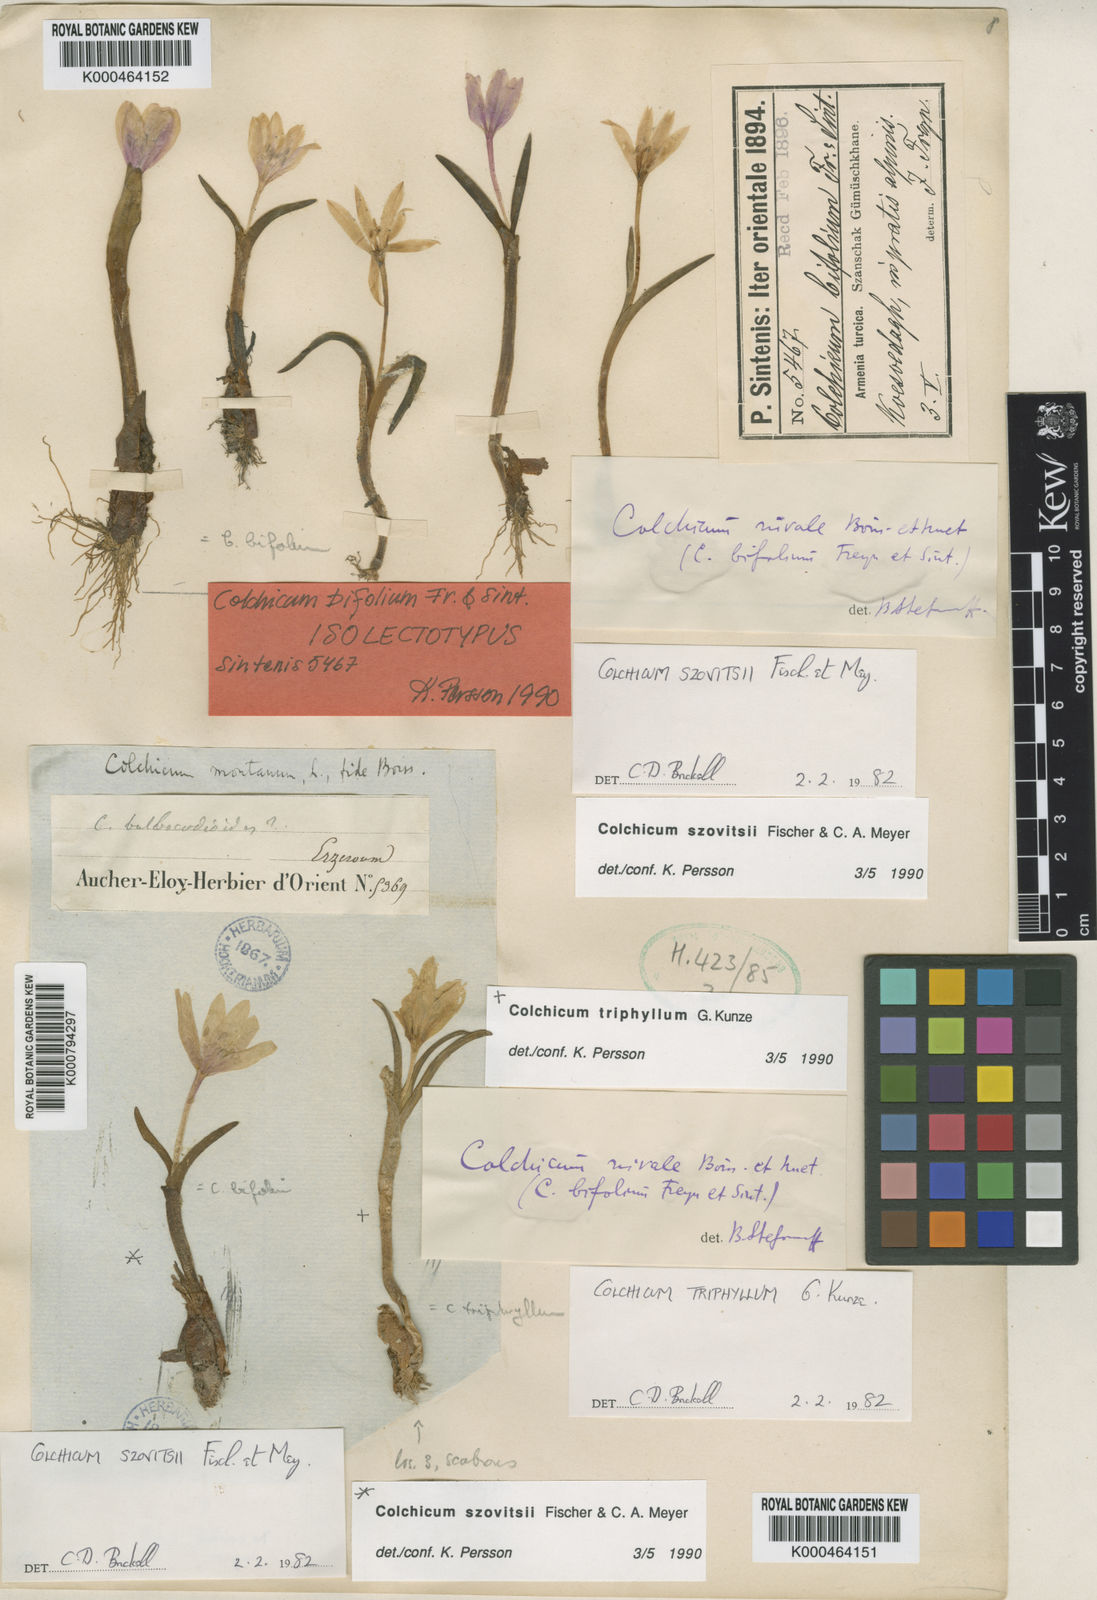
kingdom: Plantae
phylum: Tracheophyta
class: Liliopsida
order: Liliales
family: Colchicaceae
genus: Colchicum
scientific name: Colchicum szovitsii
